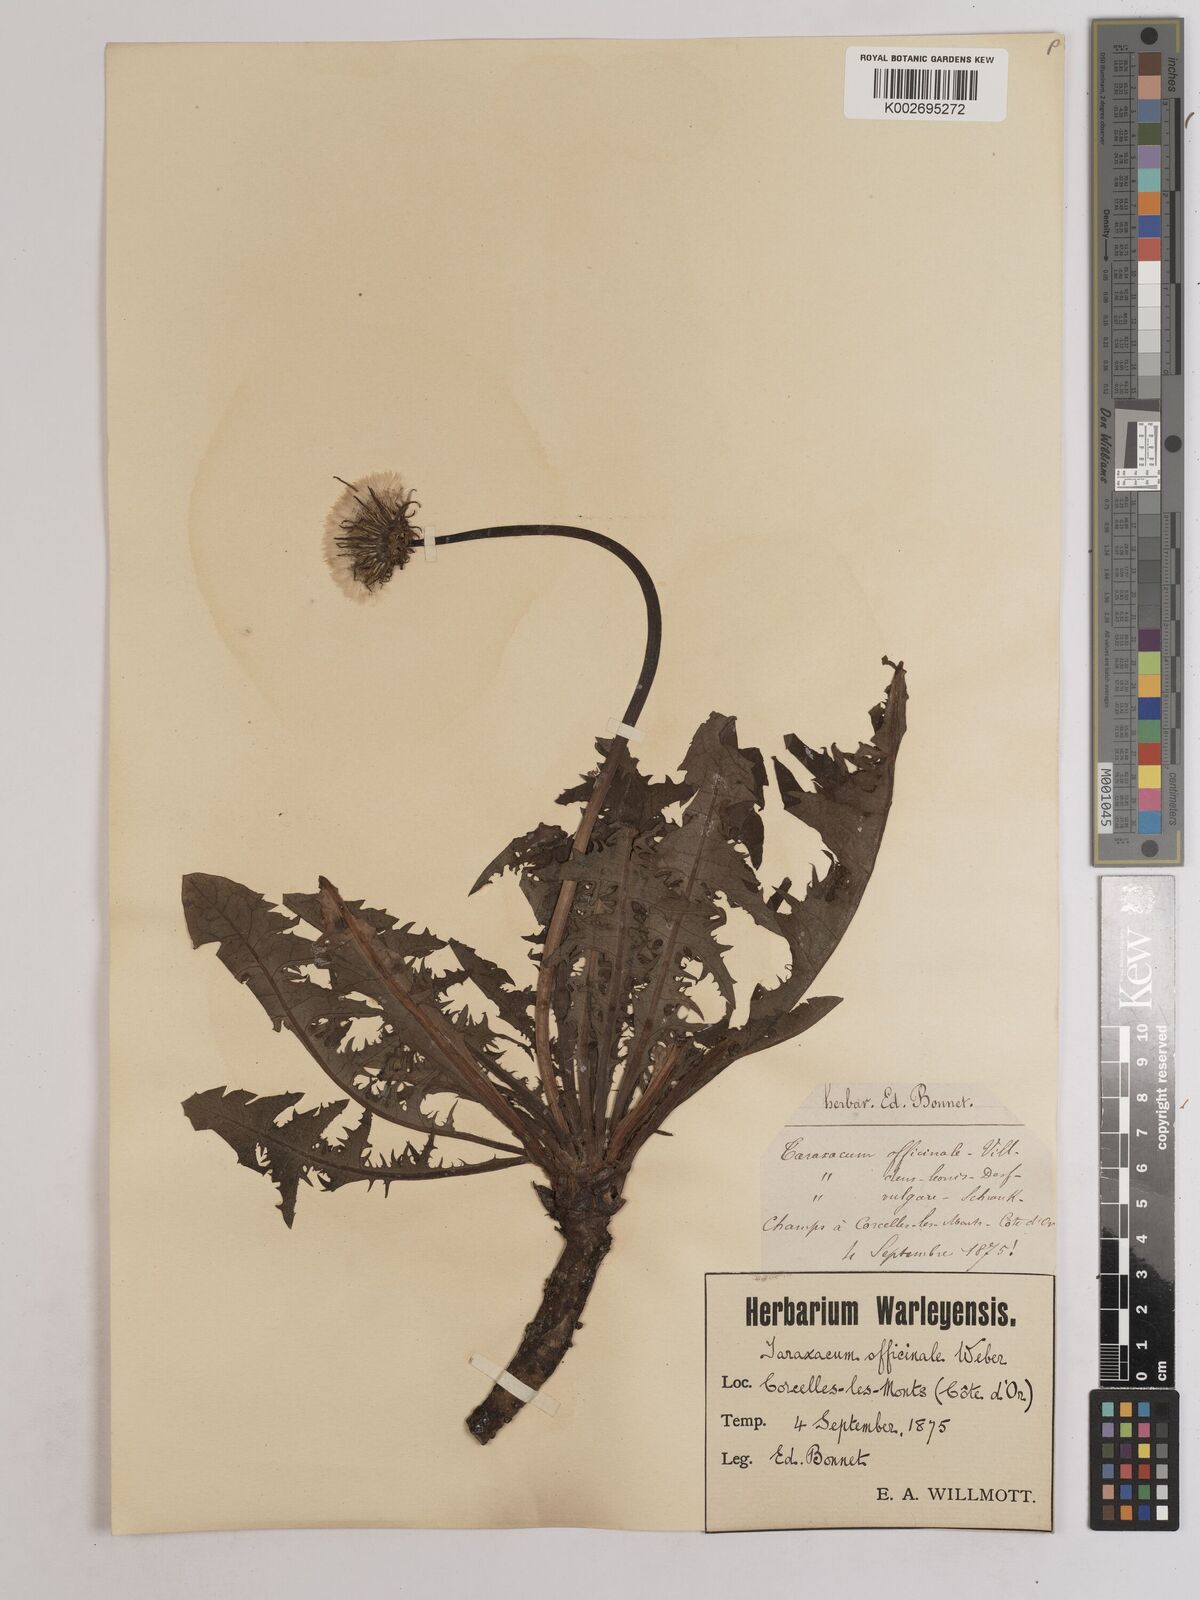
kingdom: Plantae
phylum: Tracheophyta
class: Magnoliopsida
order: Asterales
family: Asteraceae
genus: Taraxacum
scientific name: Taraxacum officinale
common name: Common dandelion
